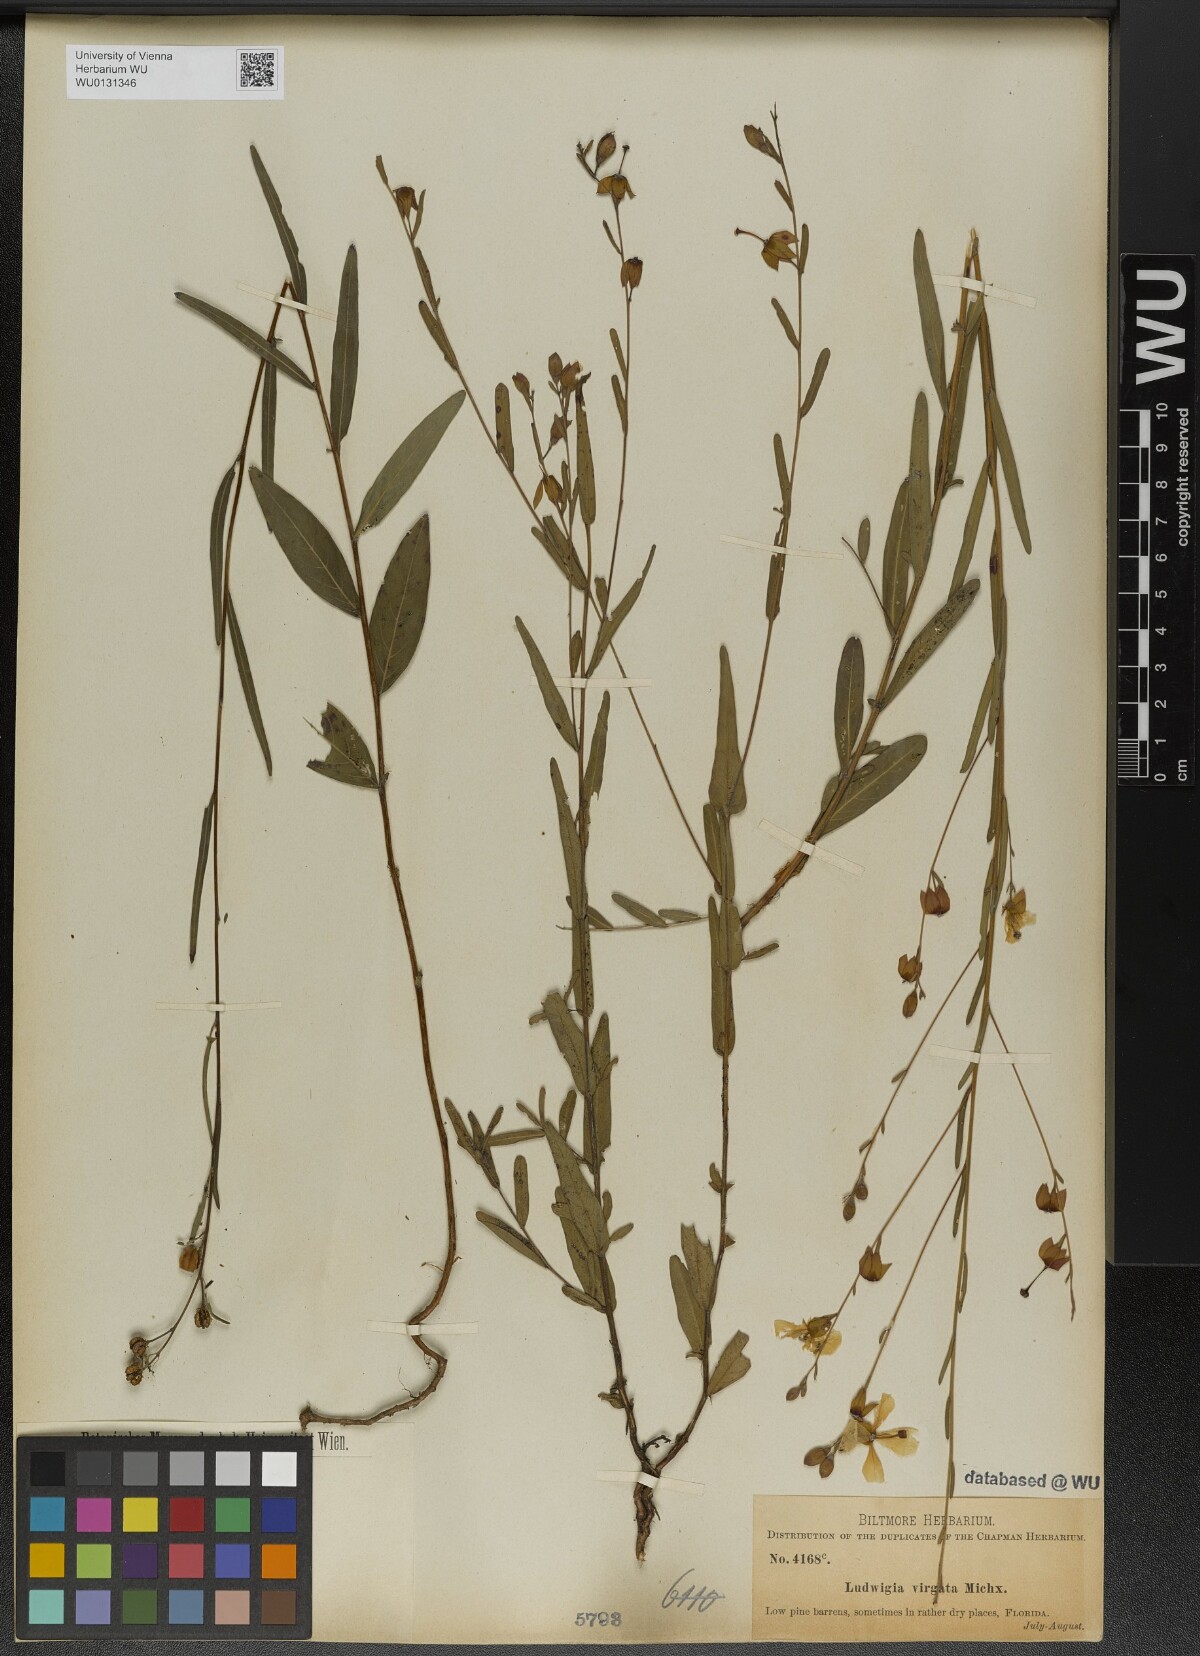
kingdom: Plantae
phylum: Tracheophyta
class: Magnoliopsida
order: Myrtales
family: Onagraceae
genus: Ludwigia
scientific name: Ludwigia virgata
